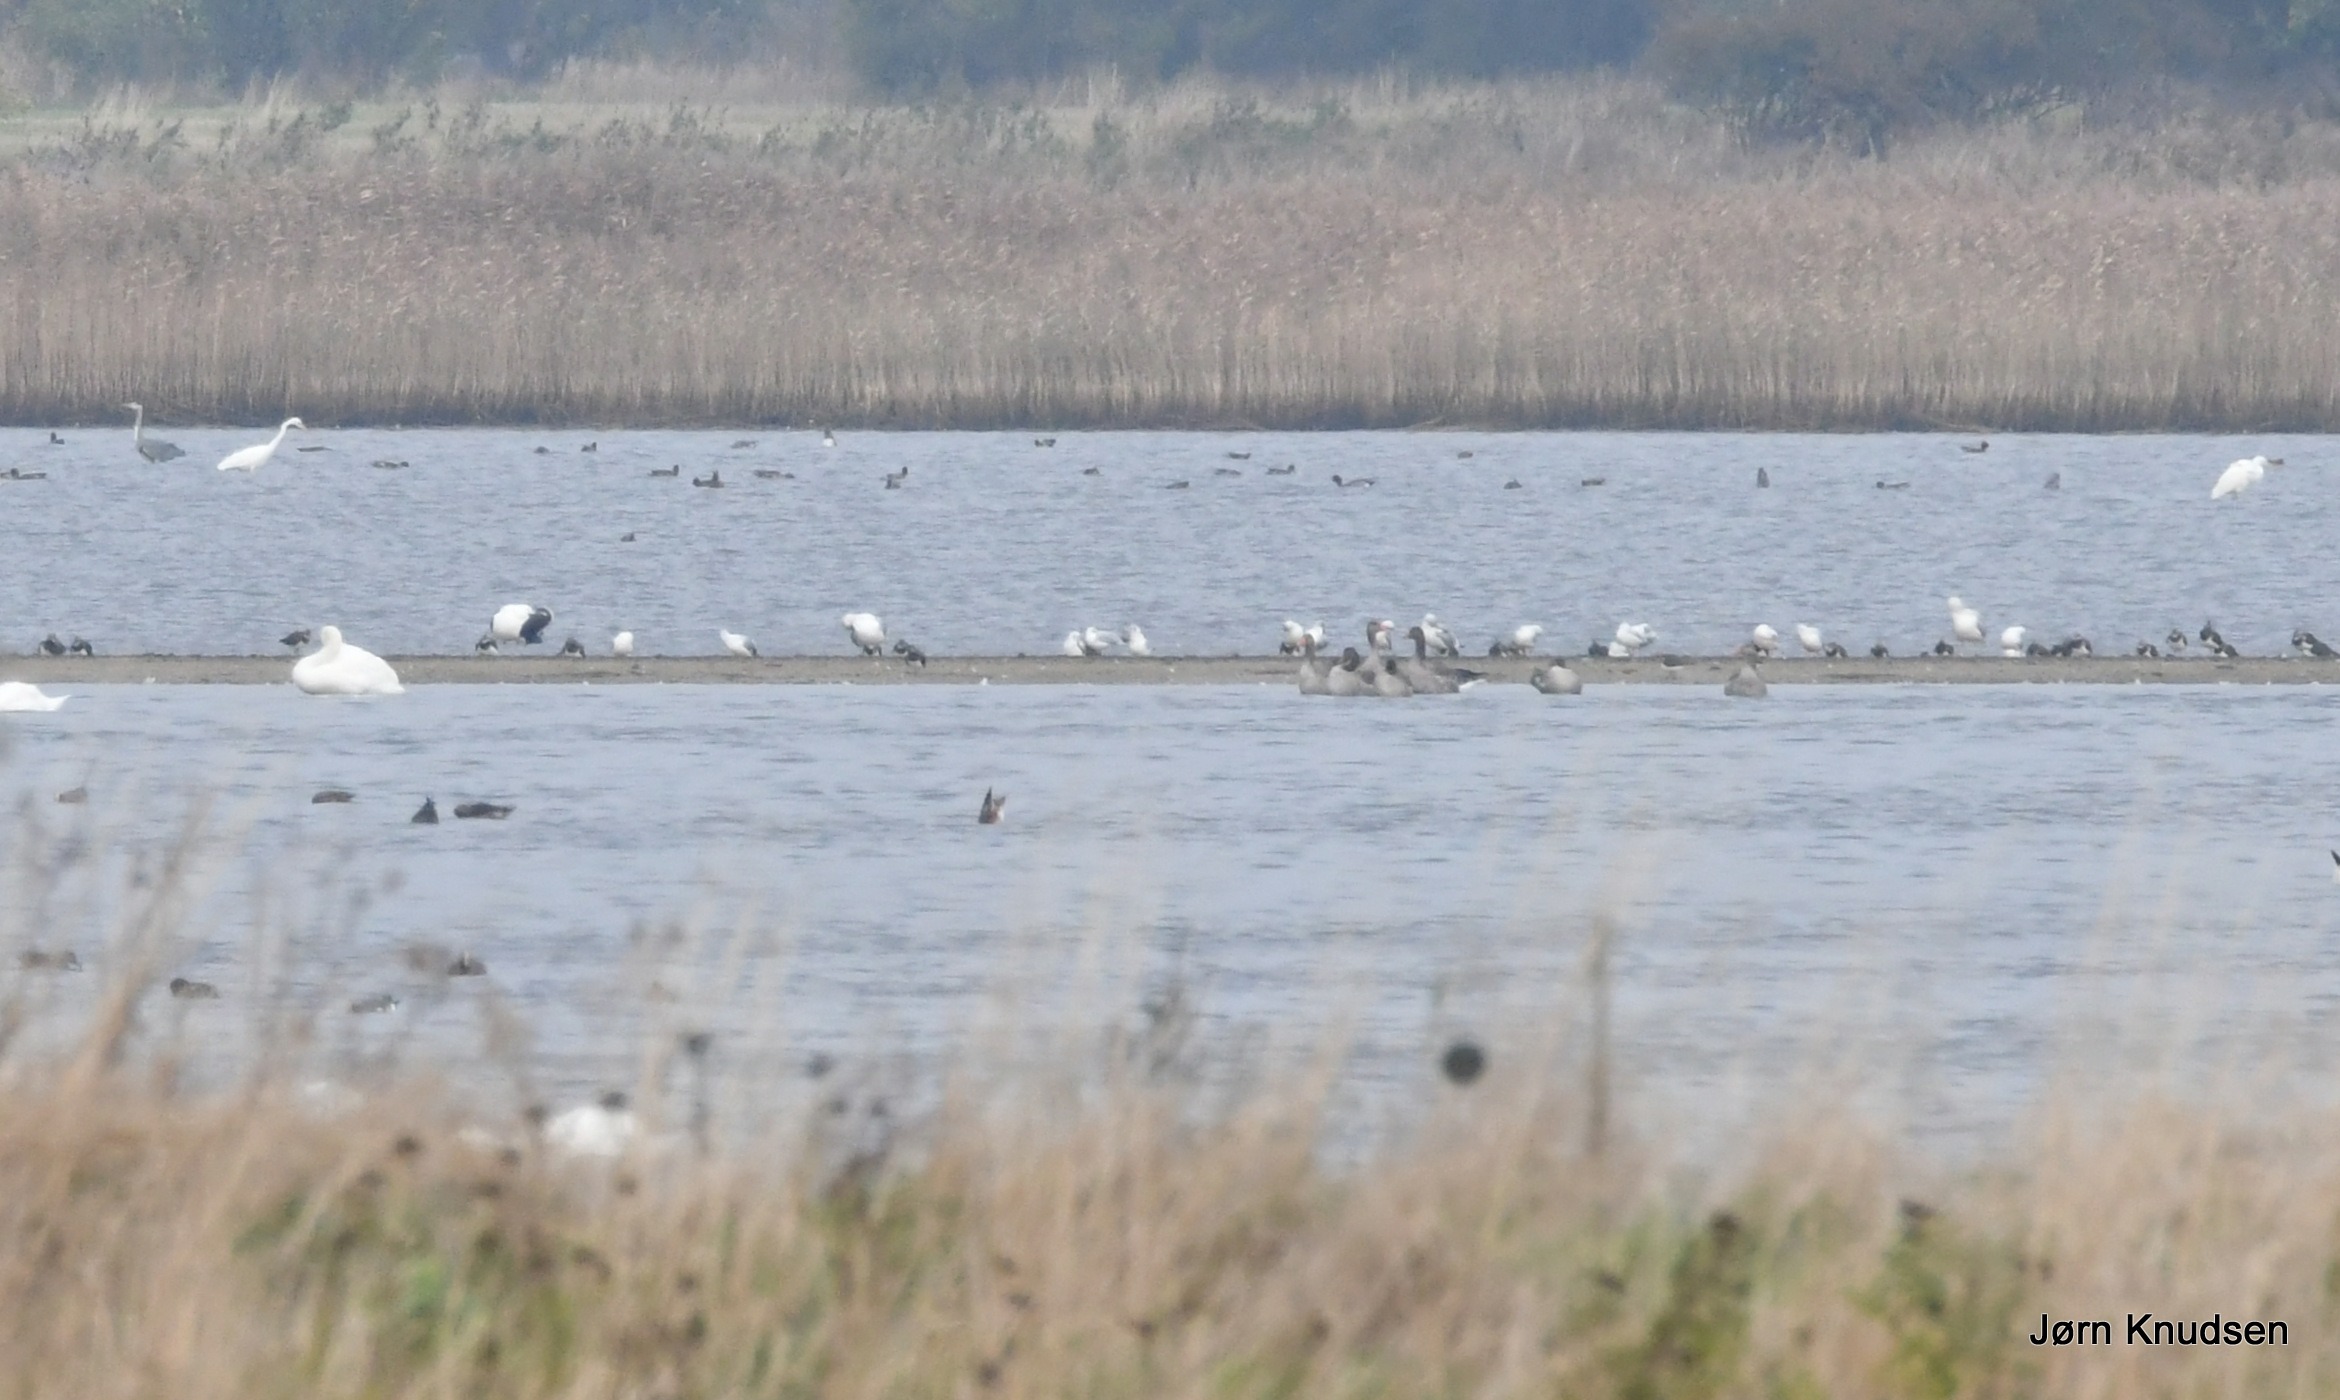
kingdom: Animalia
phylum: Chordata
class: Aves
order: Pelecaniformes
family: Ardeidae
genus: Ardea
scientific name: Ardea alba
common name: Sølvhejre
